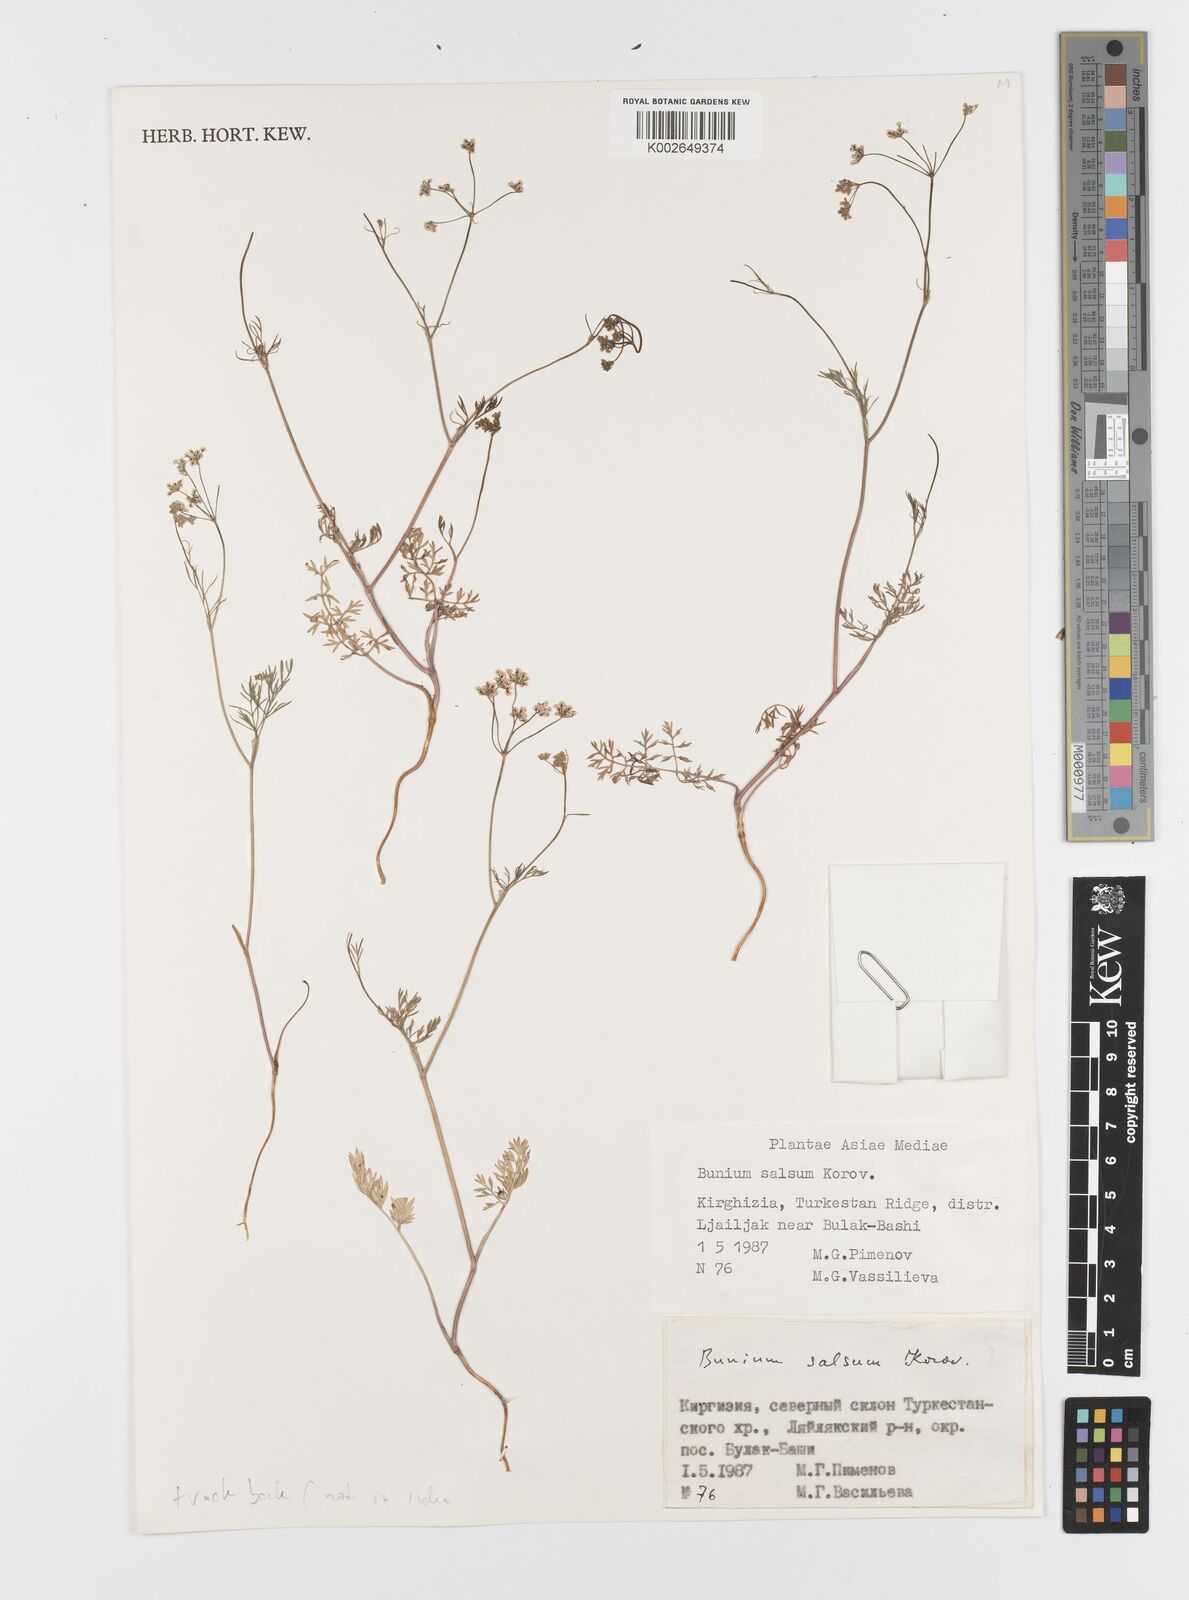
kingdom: Plantae
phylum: Tracheophyta
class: Magnoliopsida
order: Apiales
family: Apiaceae
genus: Elwendia
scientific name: Elwendia salsa
